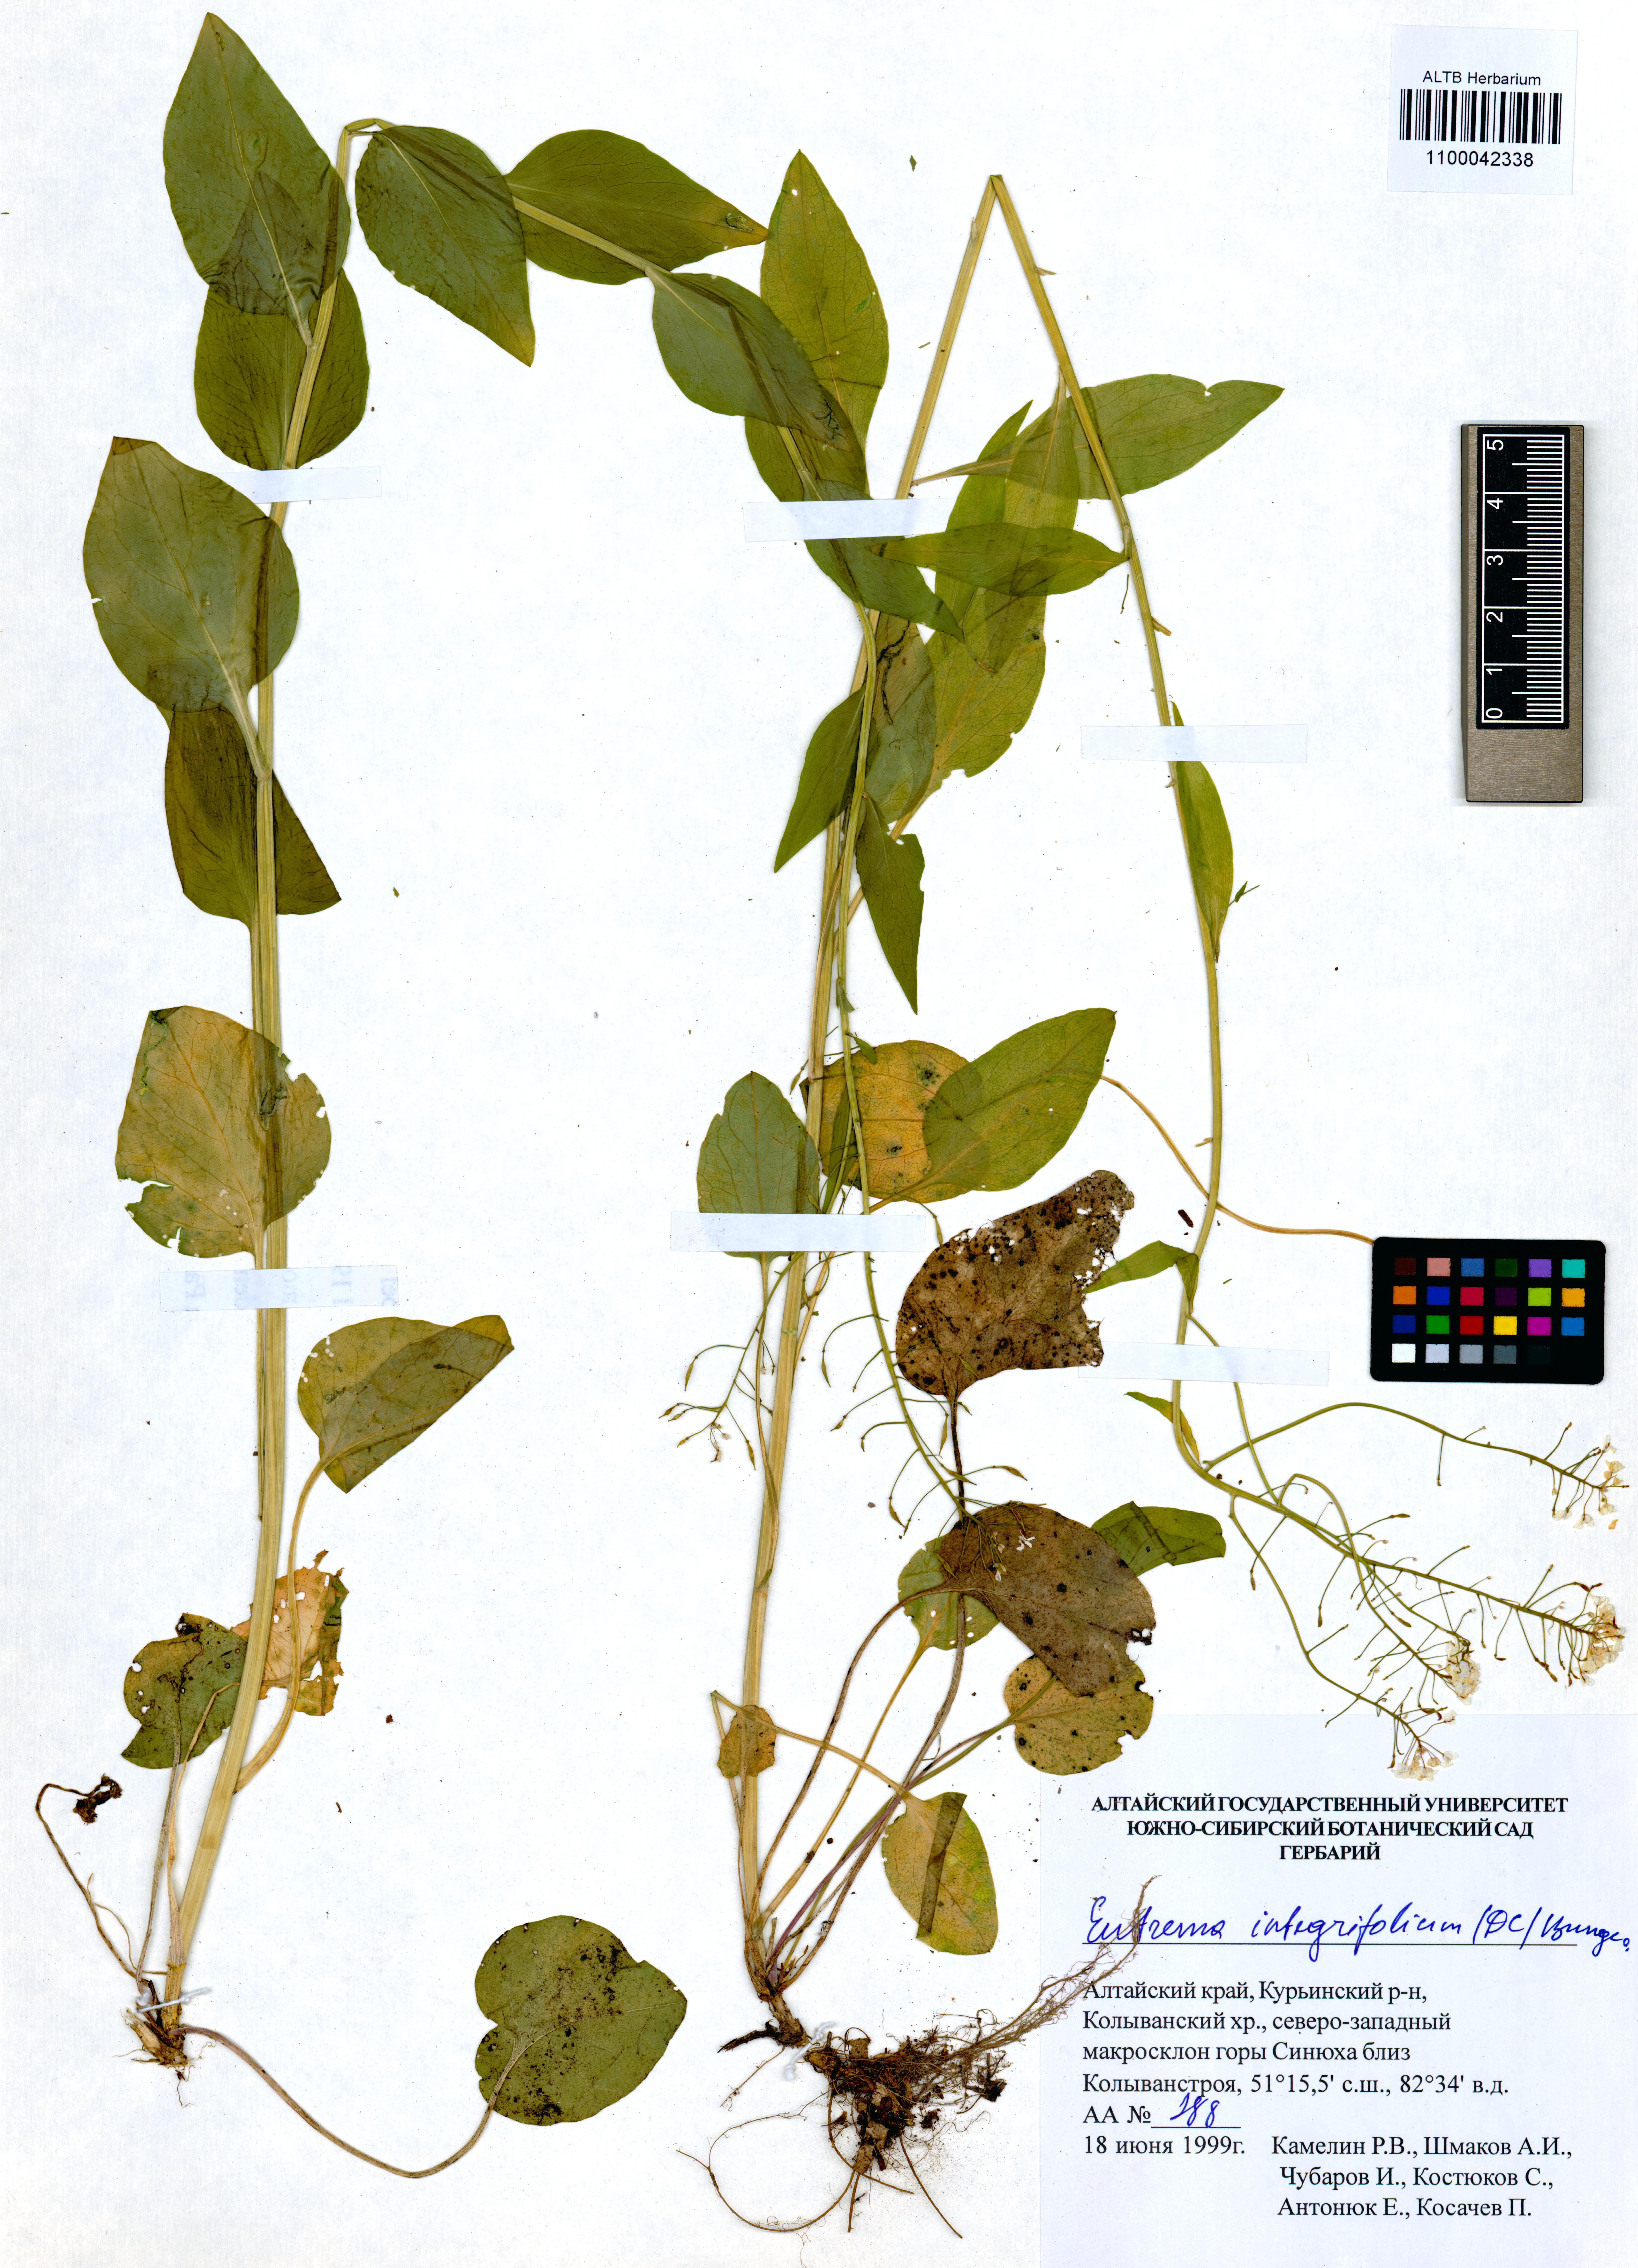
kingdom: Plantae
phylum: Tracheophyta
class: Magnoliopsida
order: Brassicales
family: Brassicaceae
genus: Eutrema
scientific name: Eutrema integrifolium
